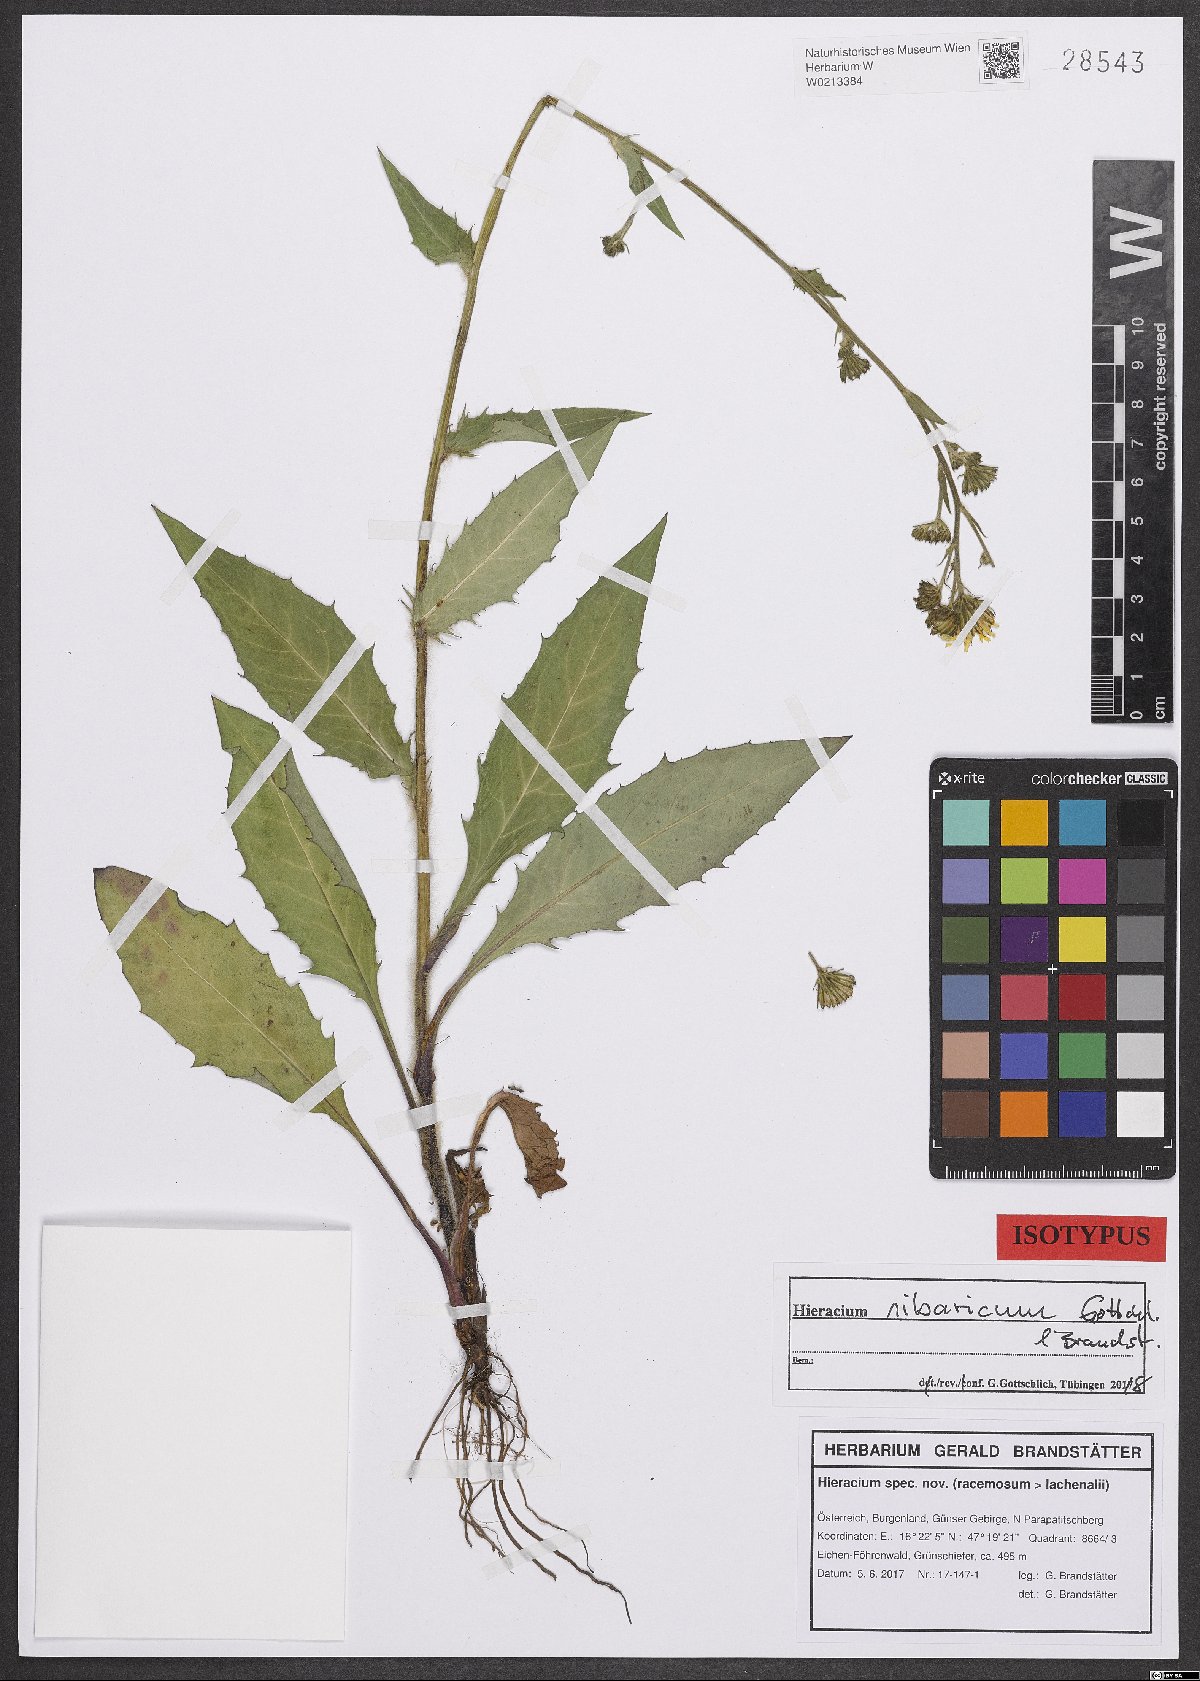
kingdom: Plantae
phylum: Tracheophyta
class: Magnoliopsida
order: Asterales
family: Asteraceae
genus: Crepis
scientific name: Crepis sibirica
